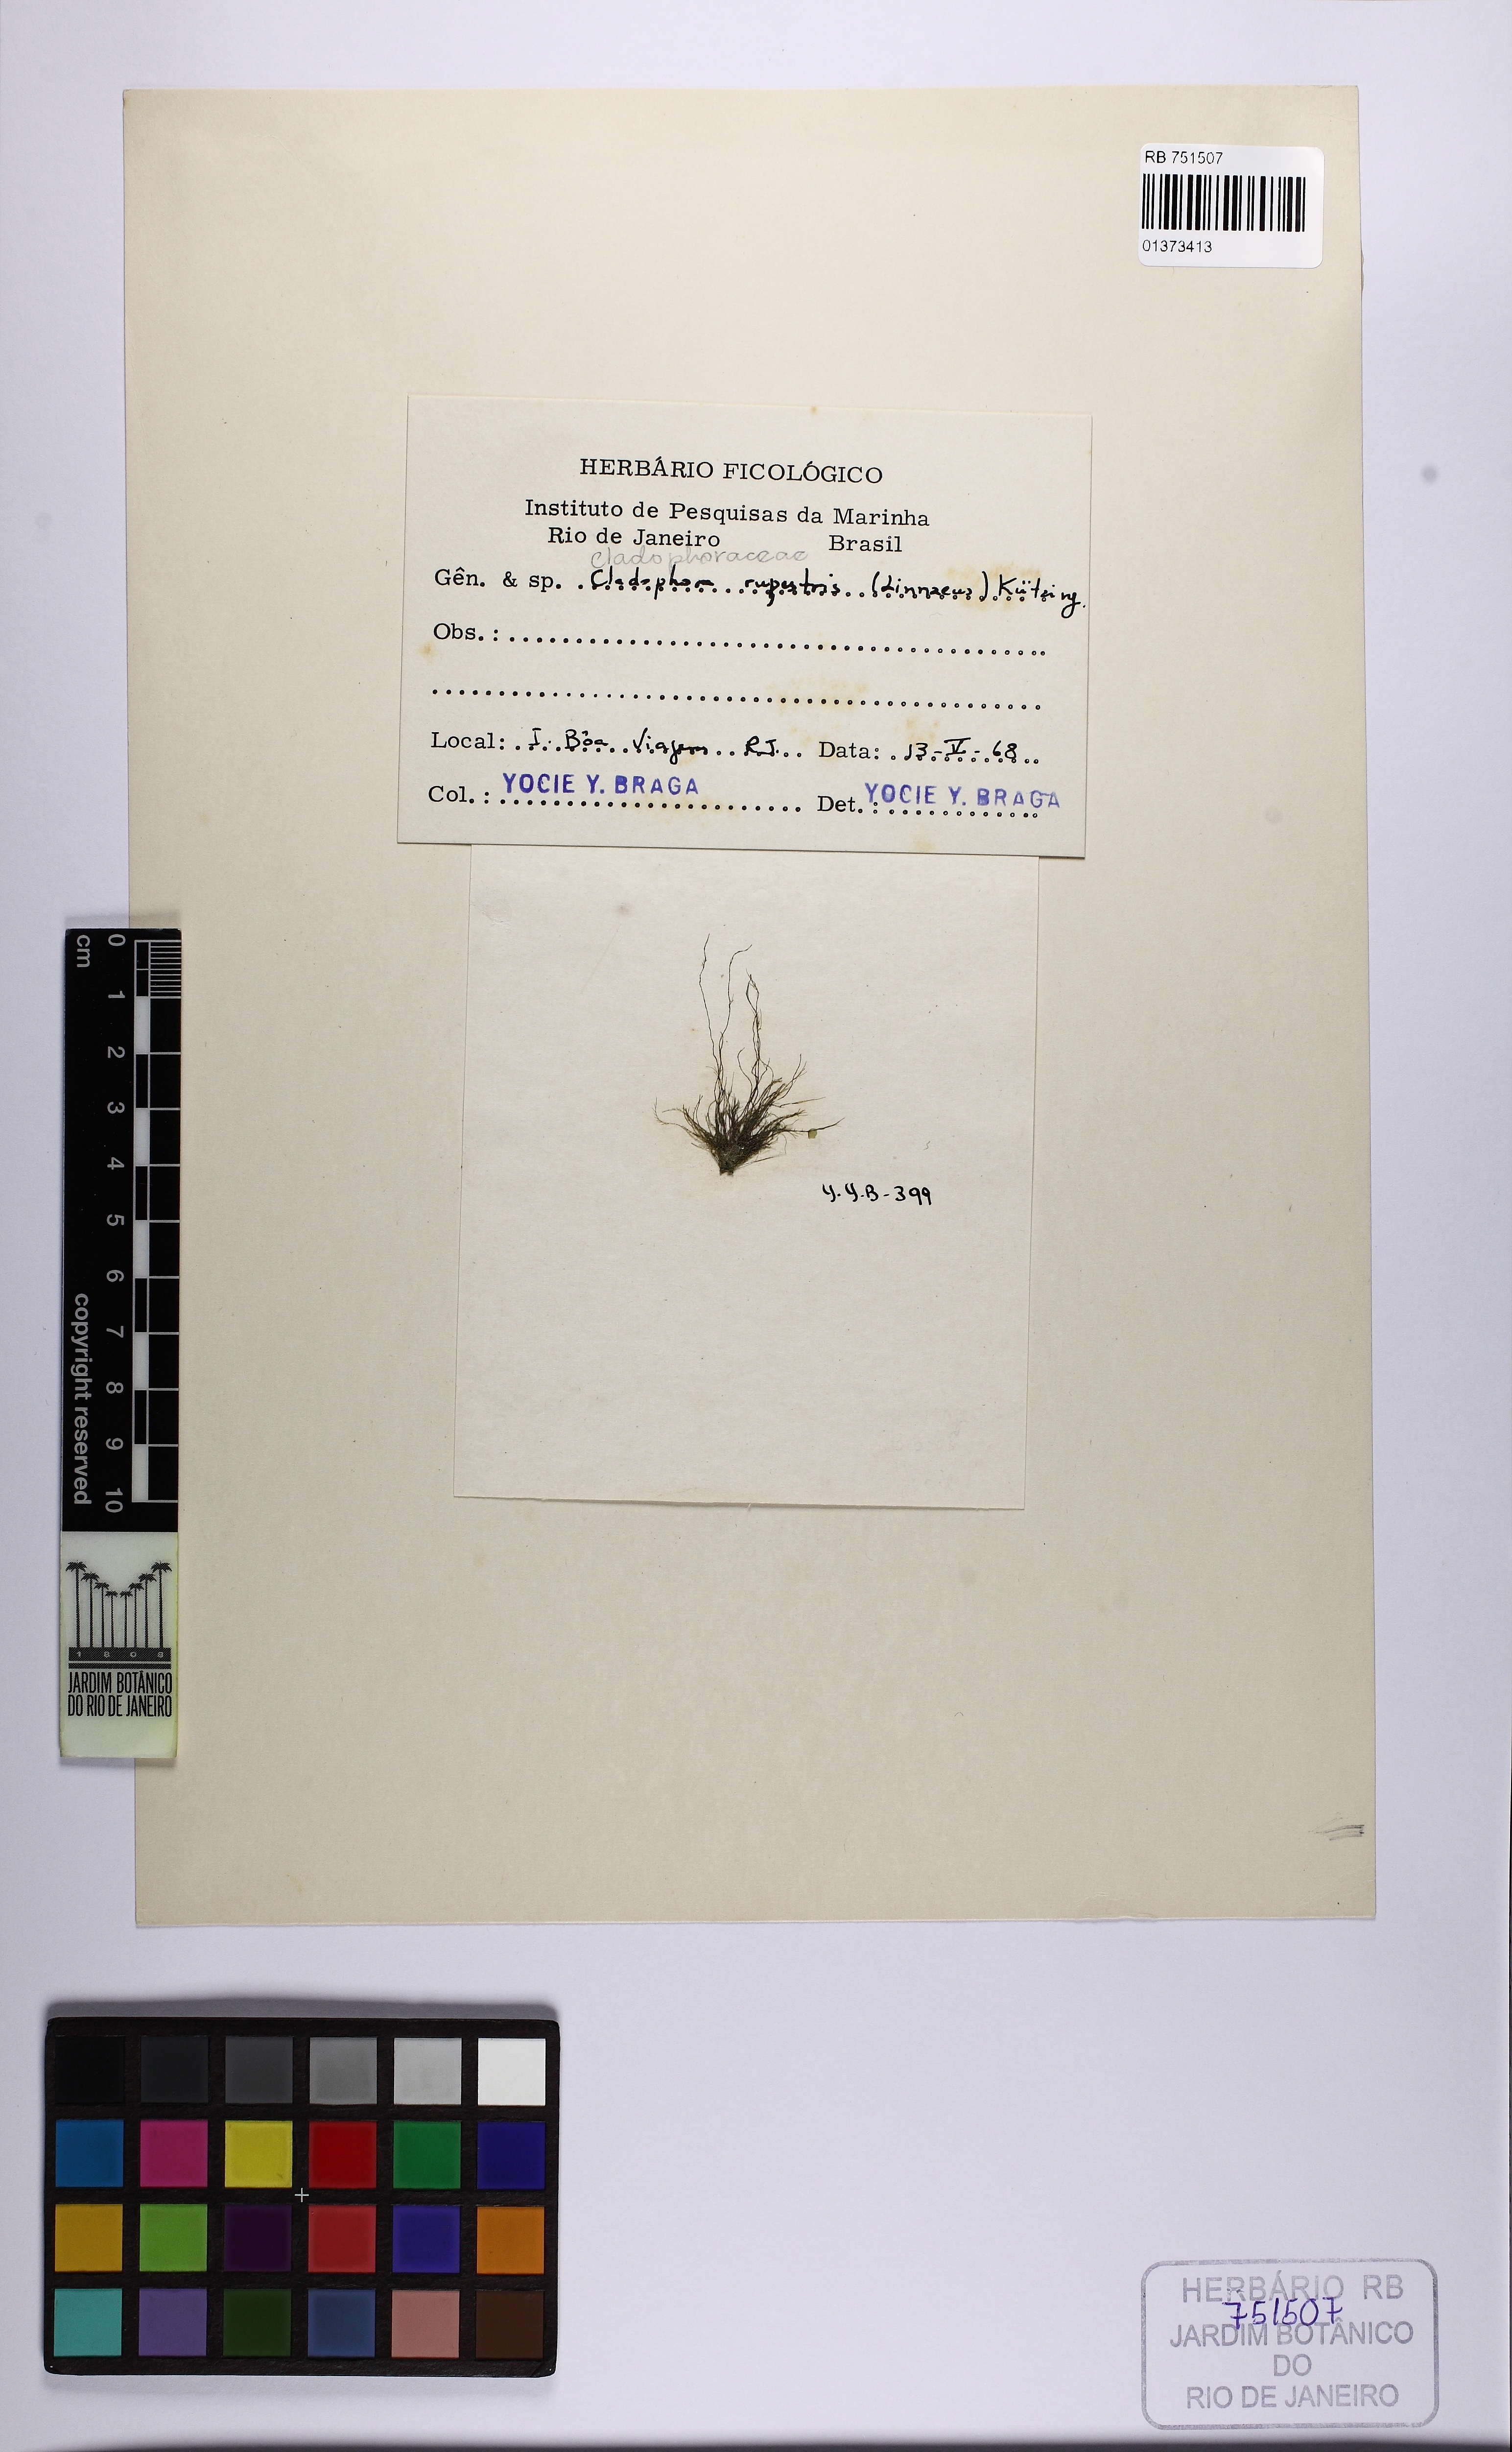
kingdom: Plantae
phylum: Chlorophyta
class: Ulvophyceae
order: Cladophorales
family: Cladophoraceae
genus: Cladophora
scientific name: Cladophora rupestris
